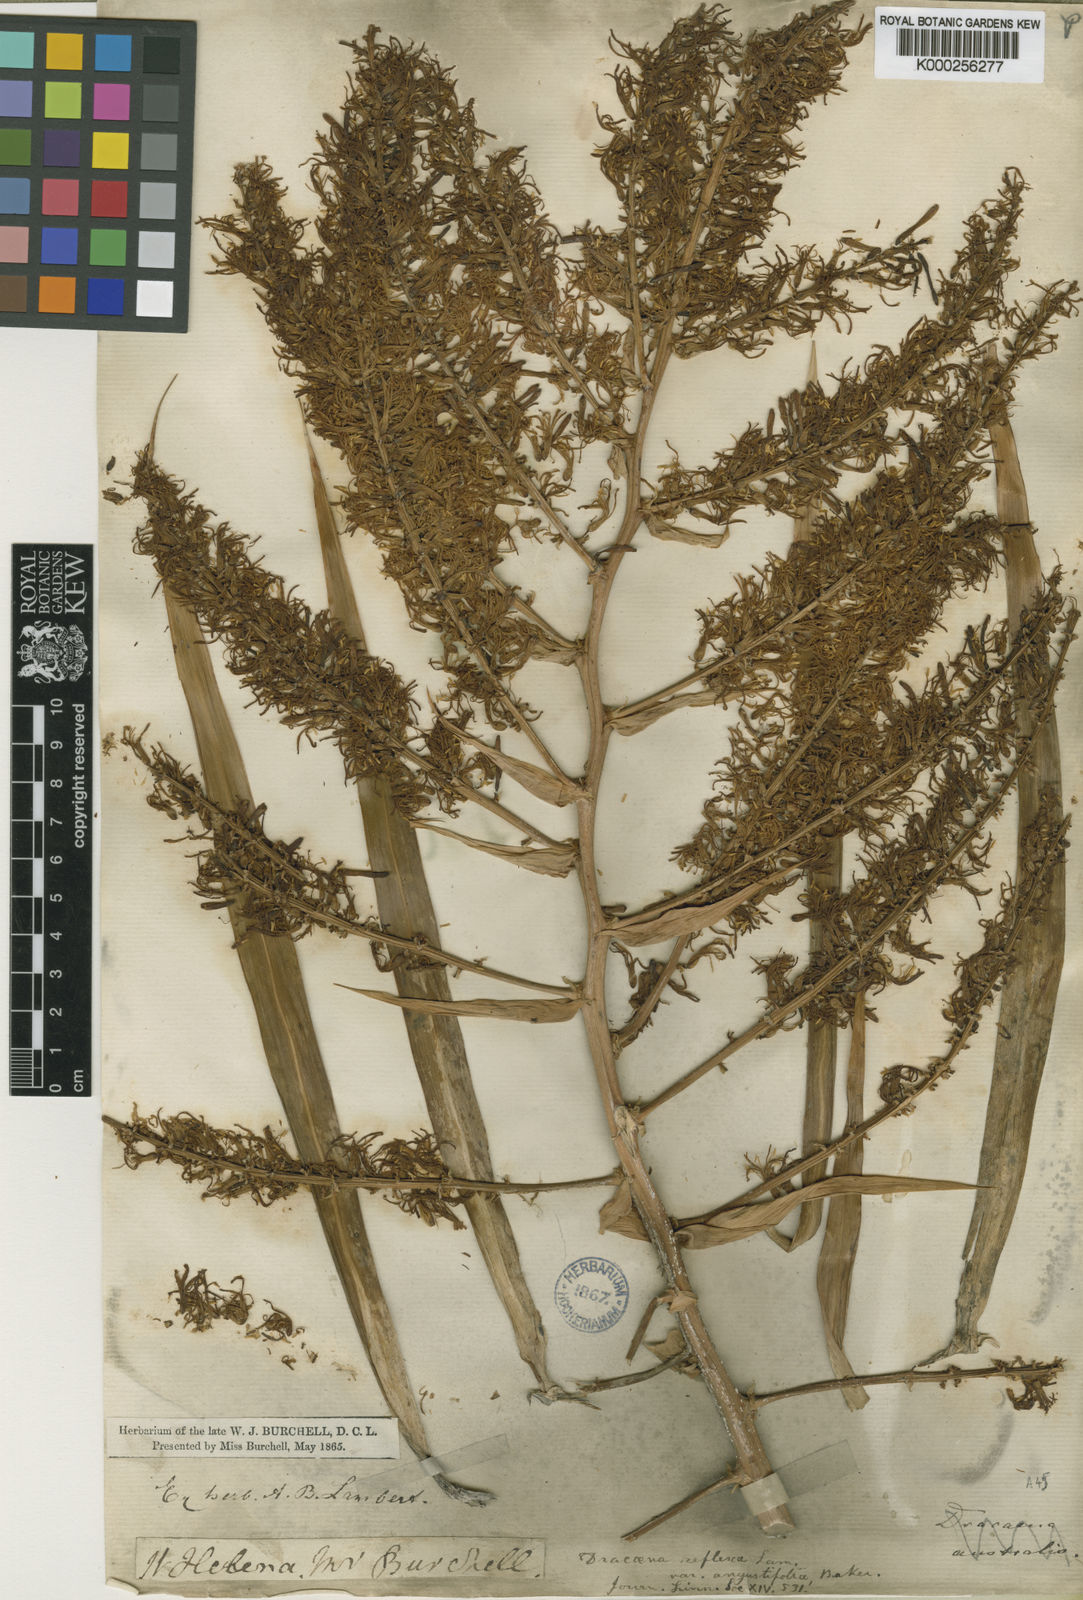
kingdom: Plantae
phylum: Tracheophyta
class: Liliopsida
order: Asparagales
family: Asparagaceae
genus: Dracaena
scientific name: Dracaena reflexa
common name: Song-of-india
